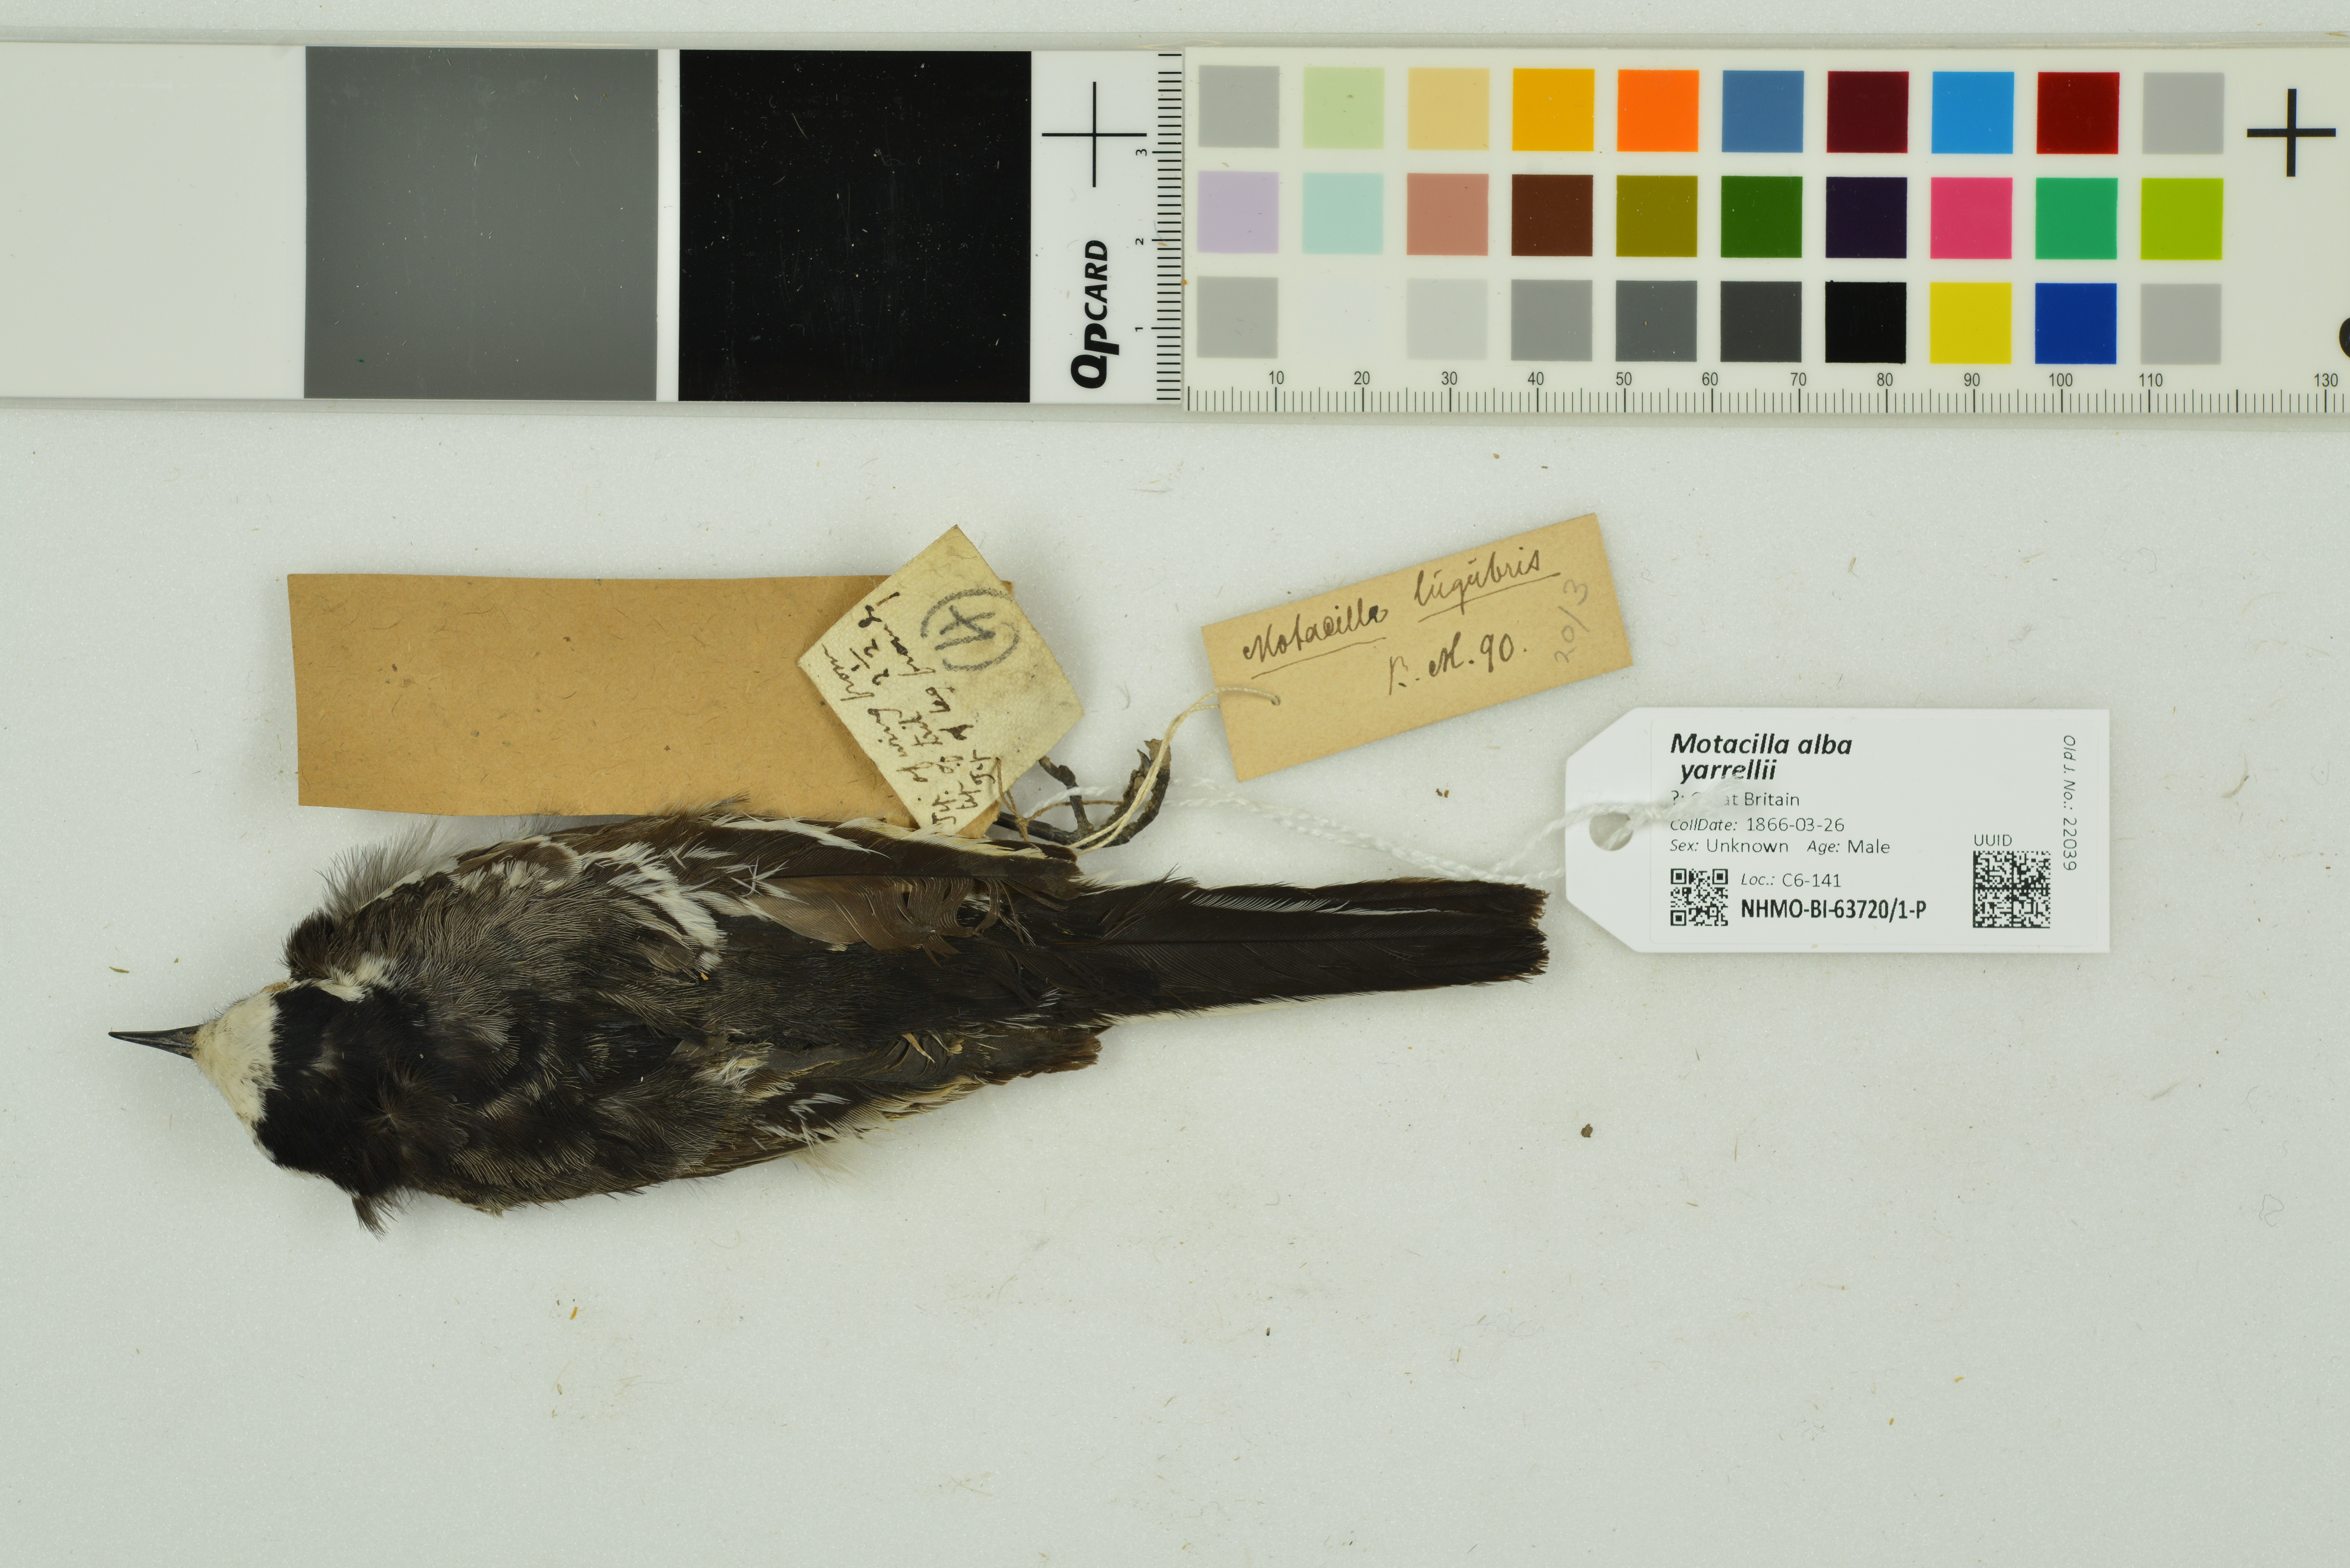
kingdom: Animalia
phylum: Chordata
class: Aves
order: Passeriformes
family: Motacillidae
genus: Motacilla
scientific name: Motacilla alba
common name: White wagtail
